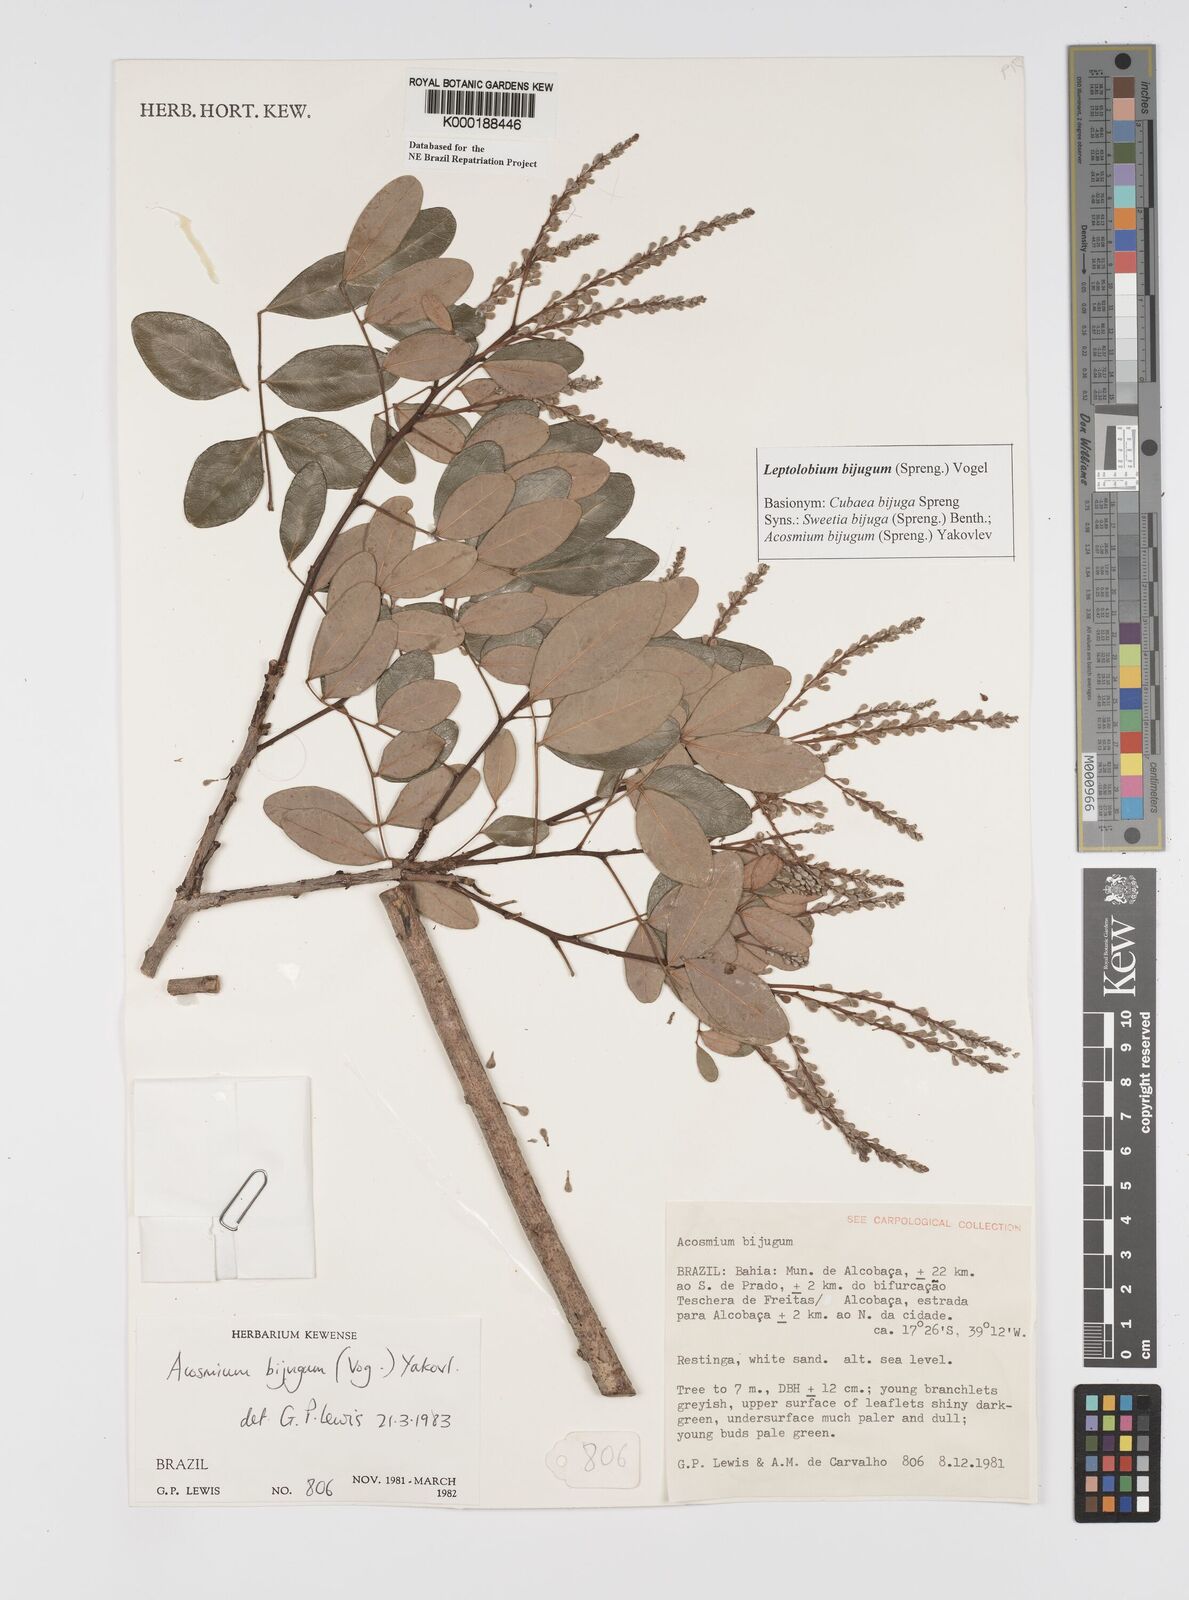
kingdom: Plantae
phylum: Tracheophyta
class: Magnoliopsida
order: Fabales
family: Fabaceae
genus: Leptolobium
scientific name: Leptolobium bijugum
